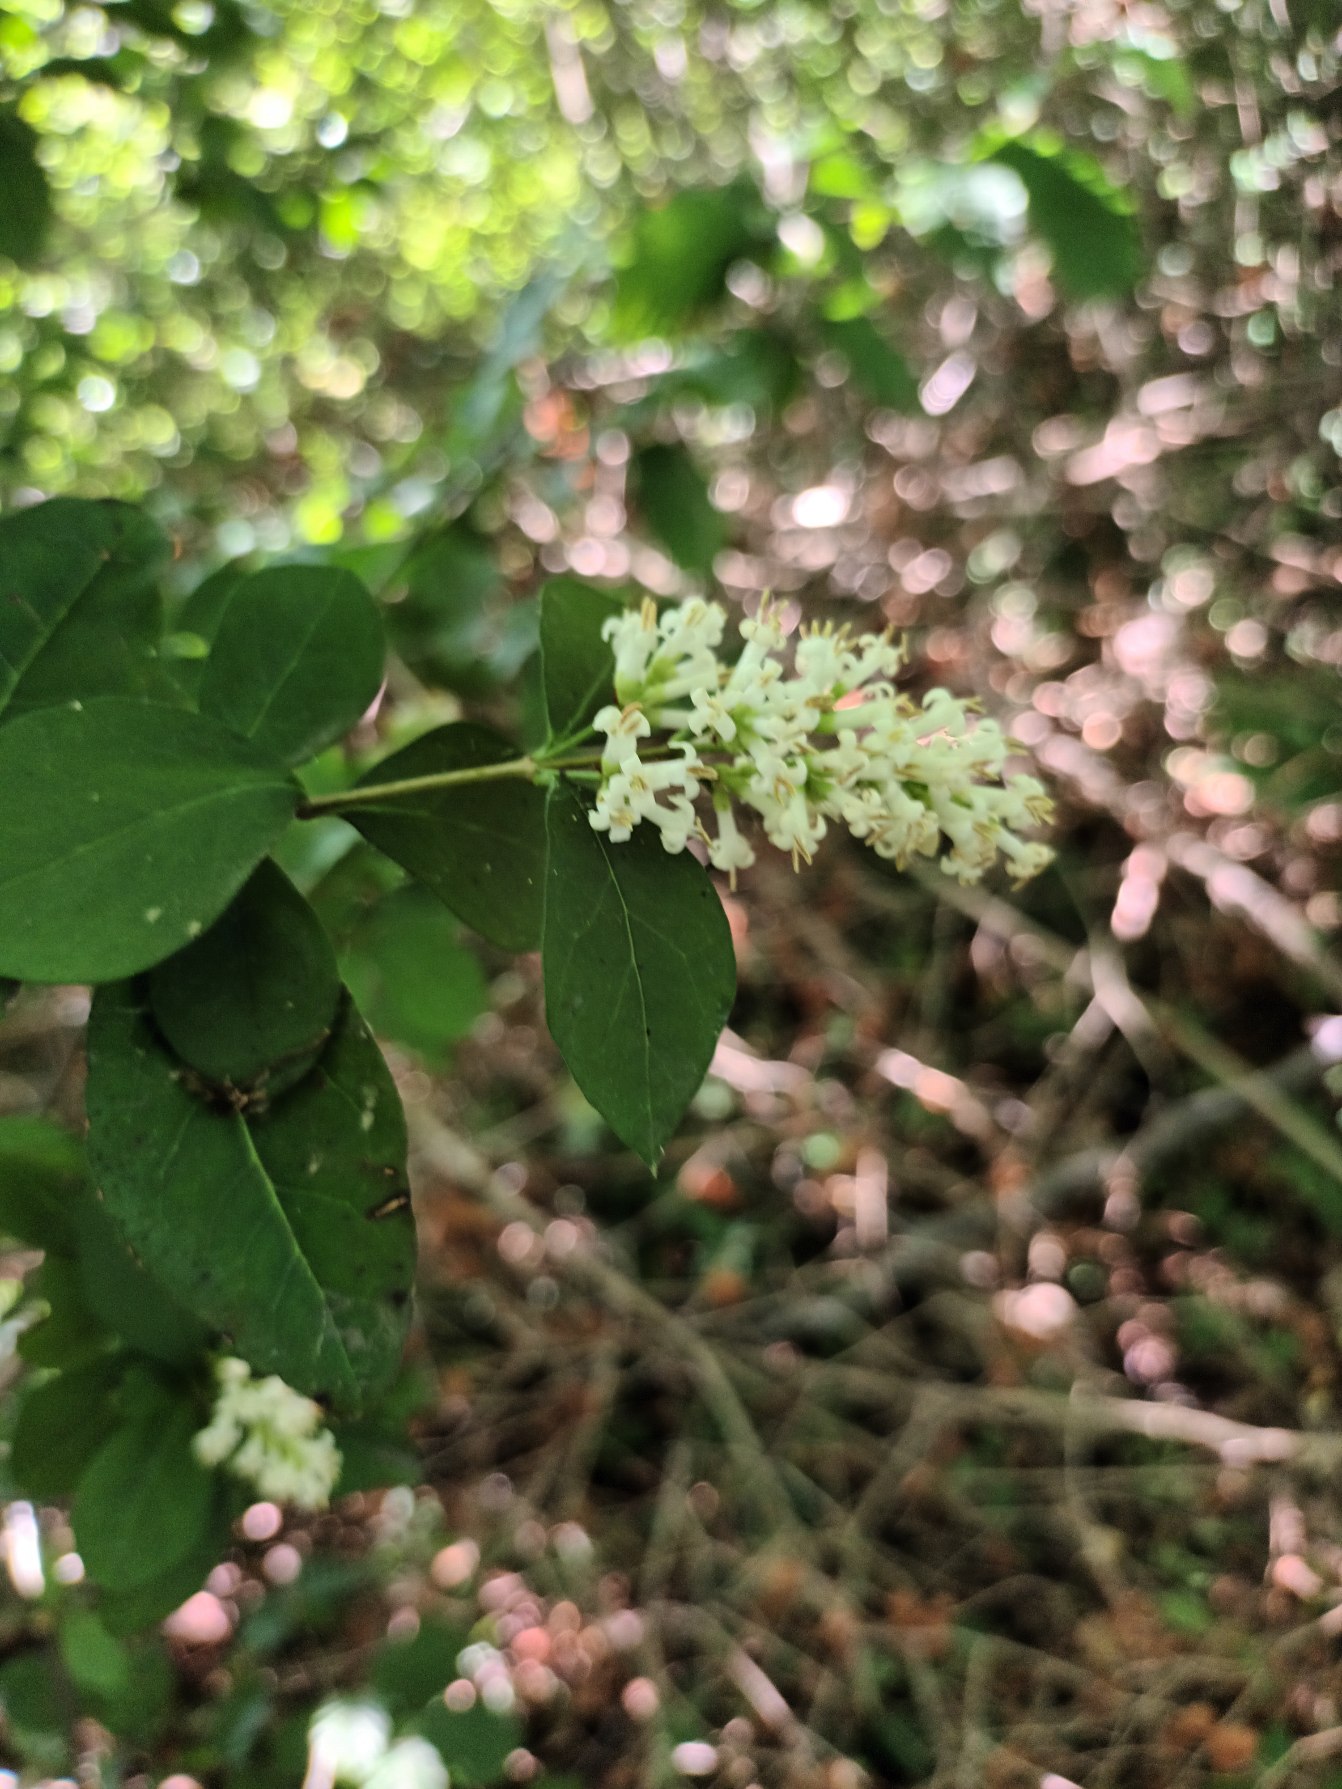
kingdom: Plantae
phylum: Tracheophyta
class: Magnoliopsida
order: Lamiales
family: Oleaceae
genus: Ligustrum
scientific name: Ligustrum ovalifolium
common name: Storbladet liguster
